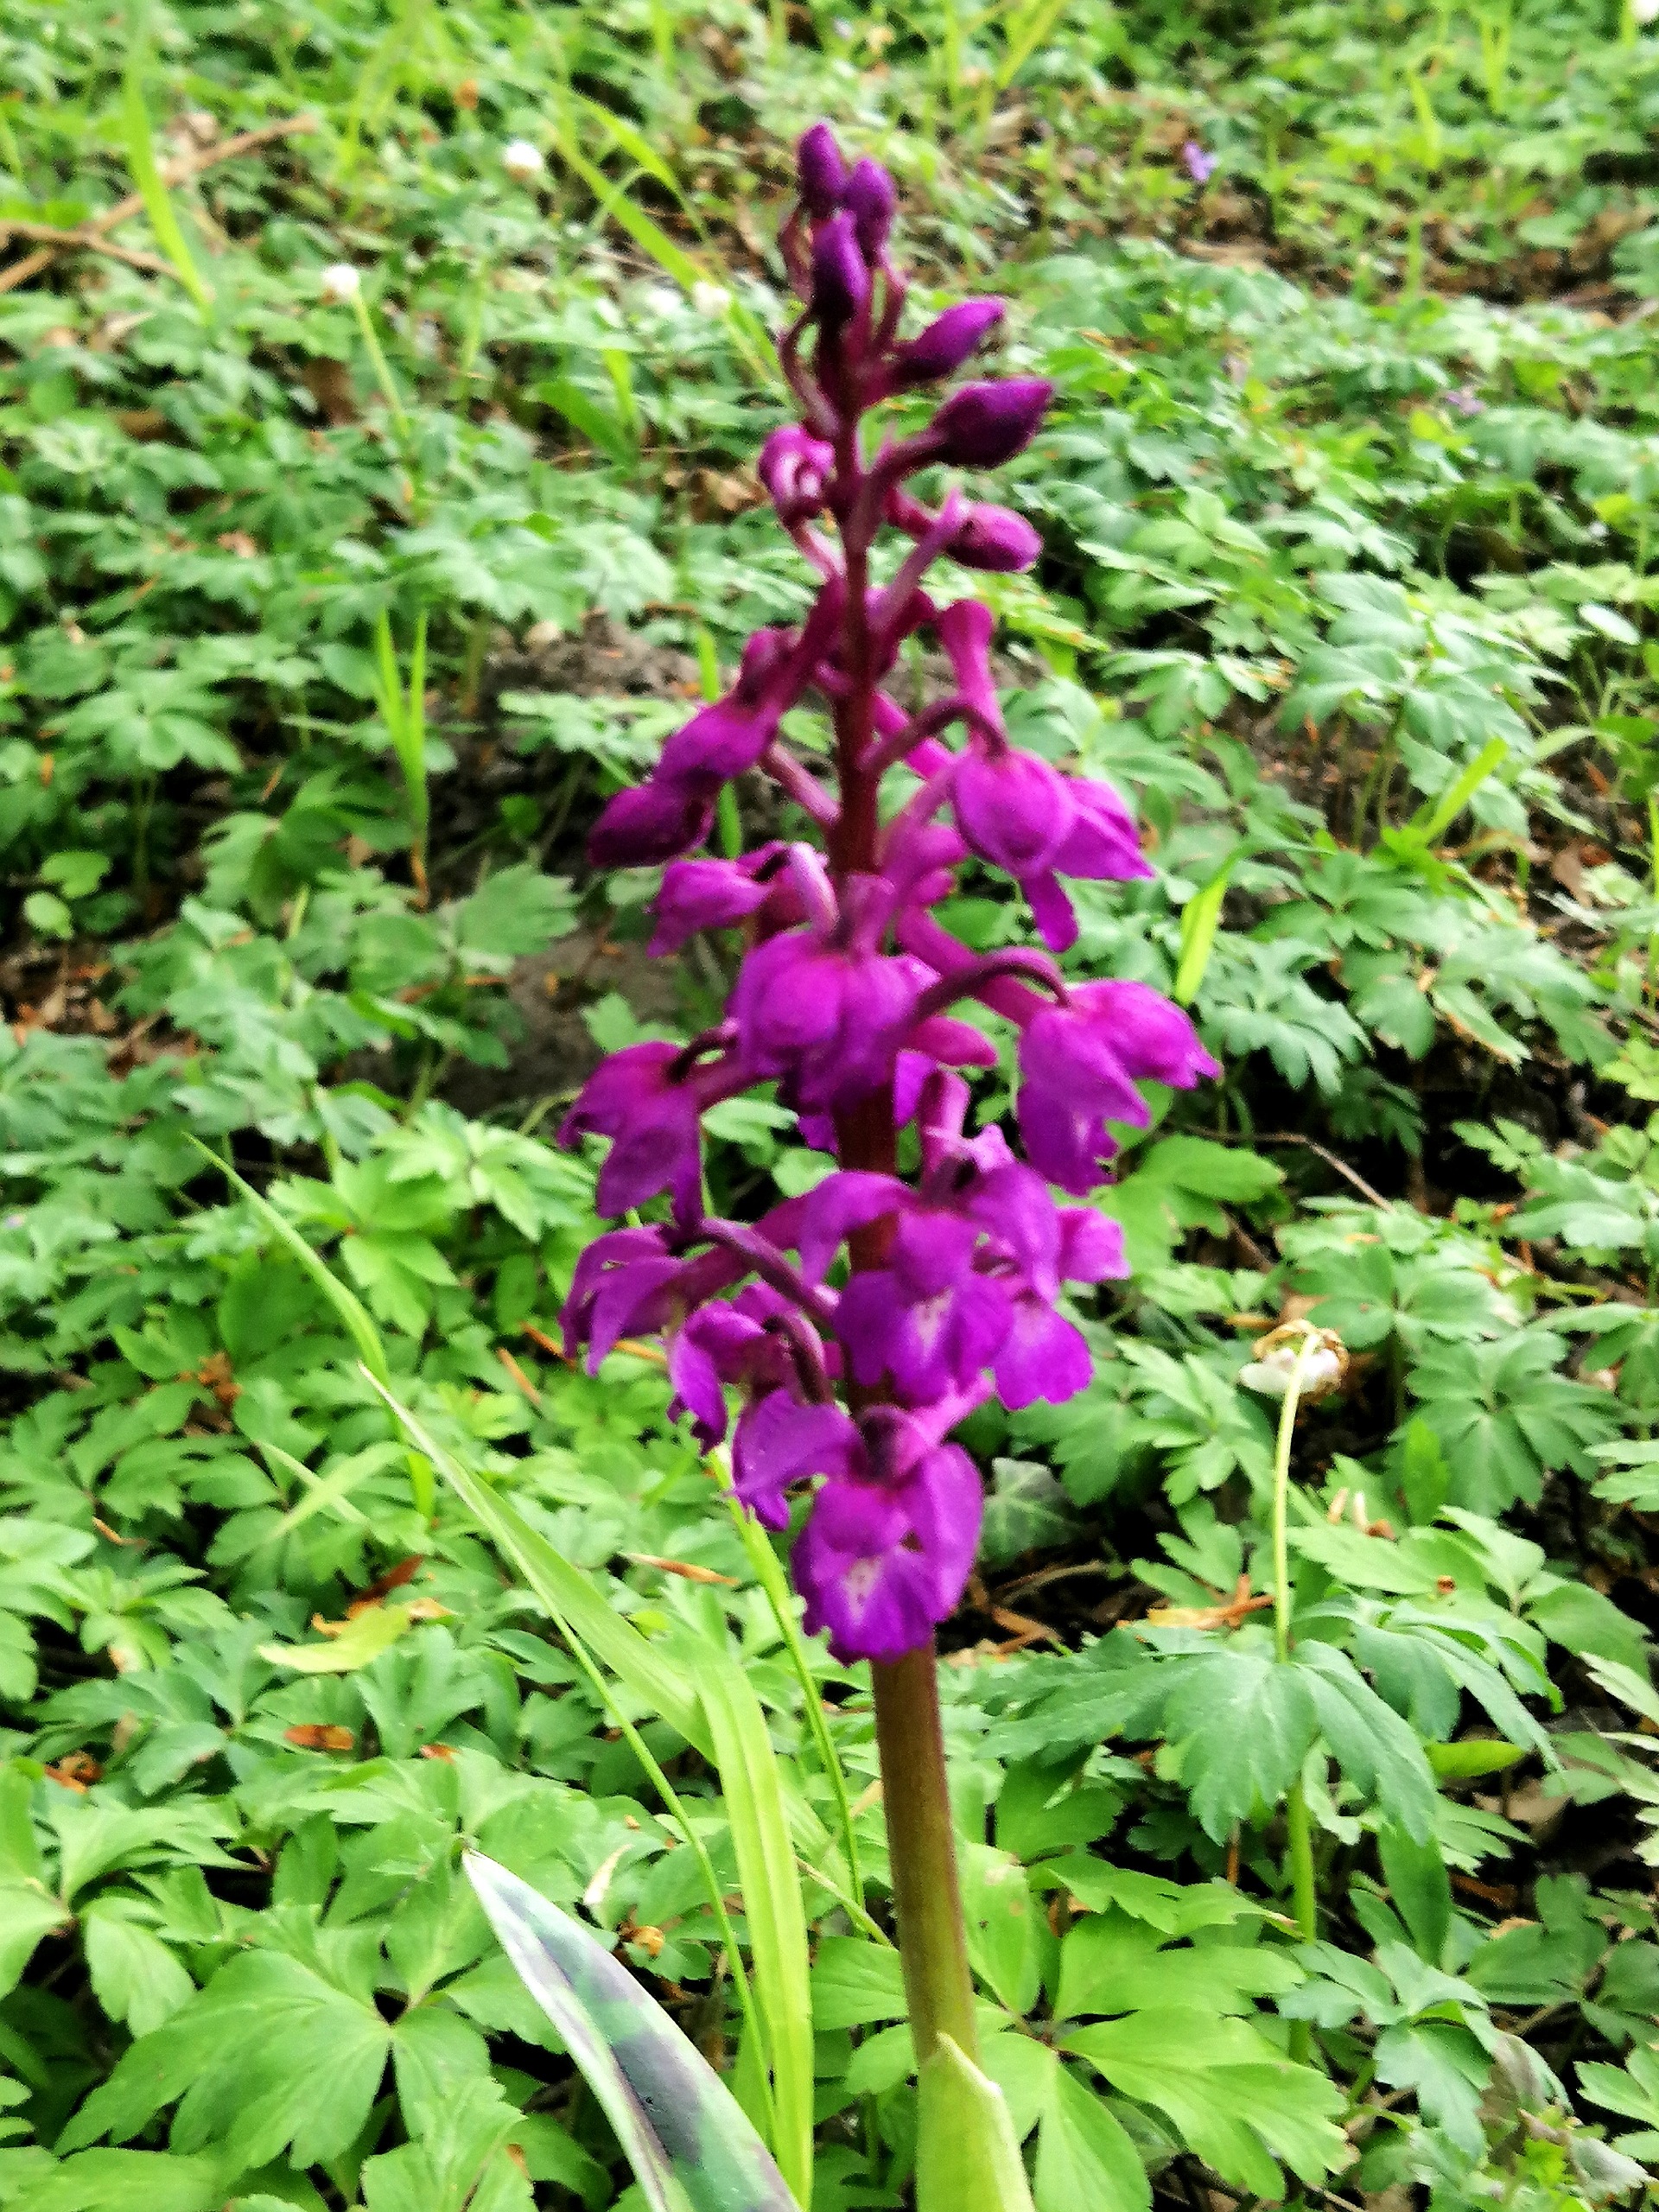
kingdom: Plantae
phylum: Tracheophyta
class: Liliopsida
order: Asparagales
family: Orchidaceae
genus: Orchis
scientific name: Orchis mascula
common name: Tyndakset gøgeurt
